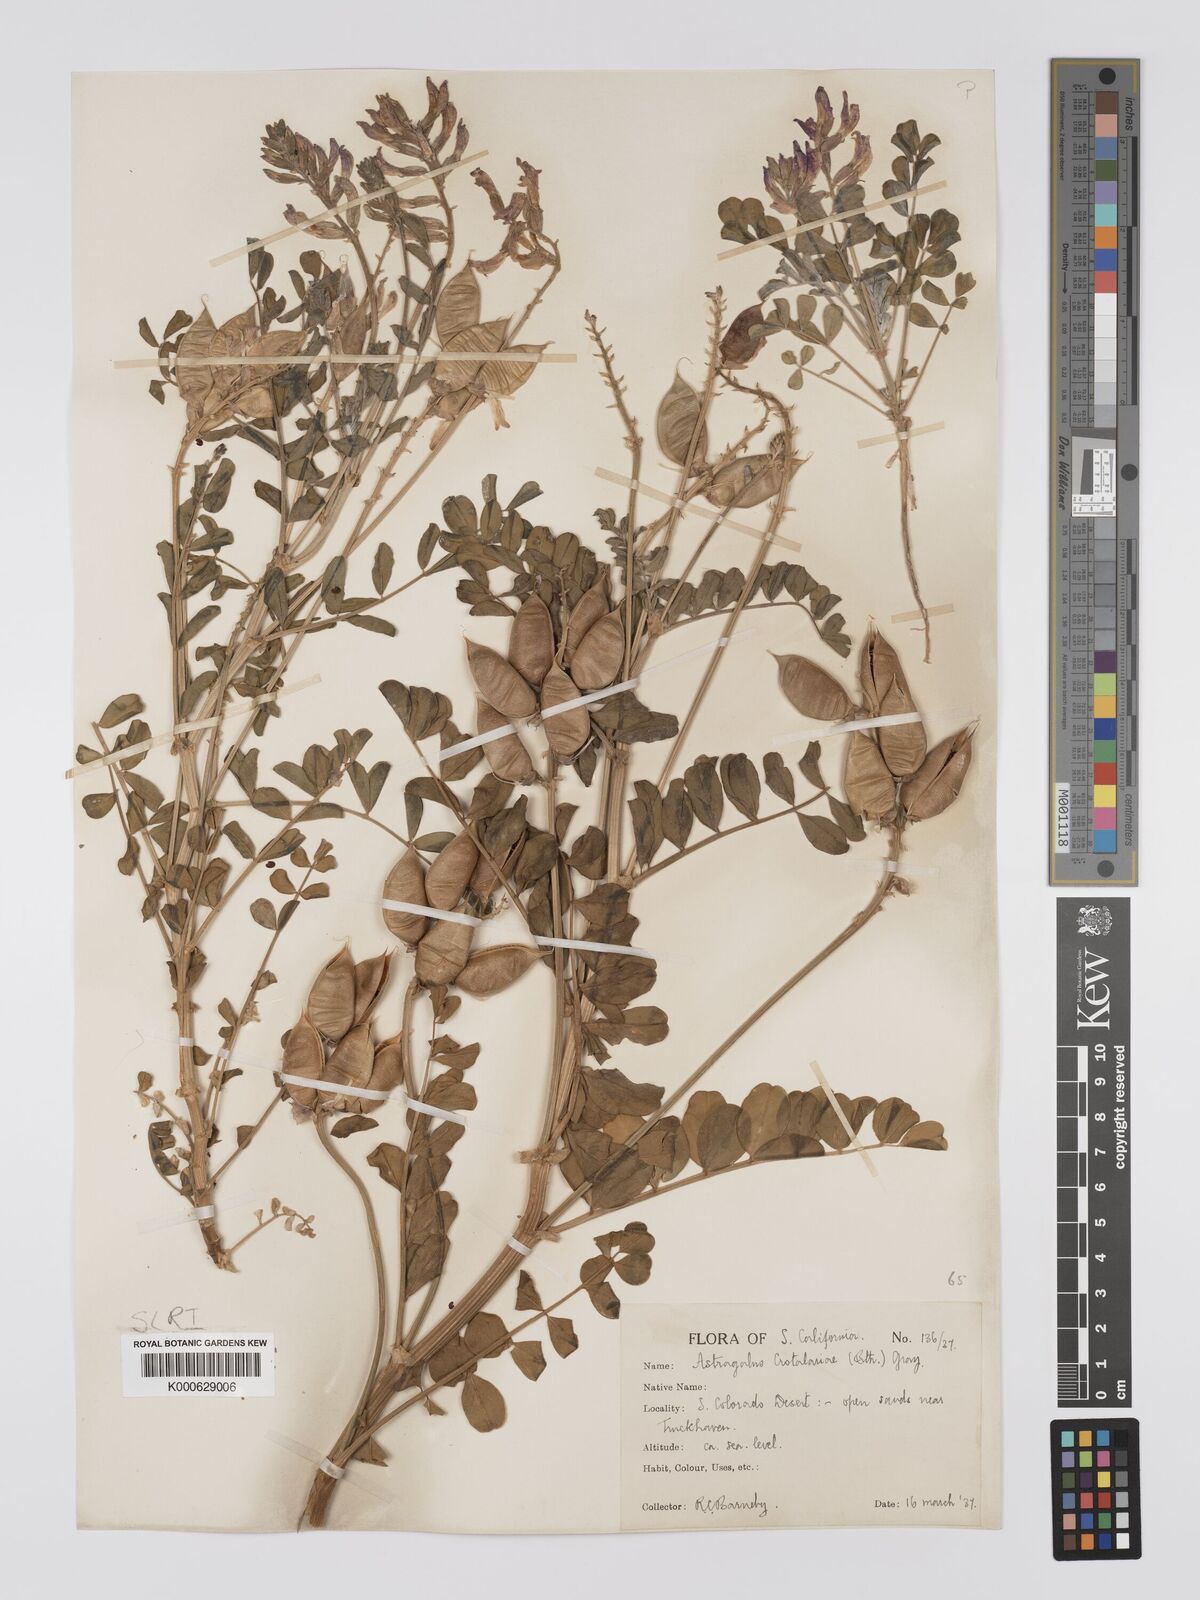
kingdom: Plantae
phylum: Tracheophyta
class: Magnoliopsida
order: Fabales
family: Fabaceae
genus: Astragalus
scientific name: Astragalus crotalariae
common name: Salton milkvetch
